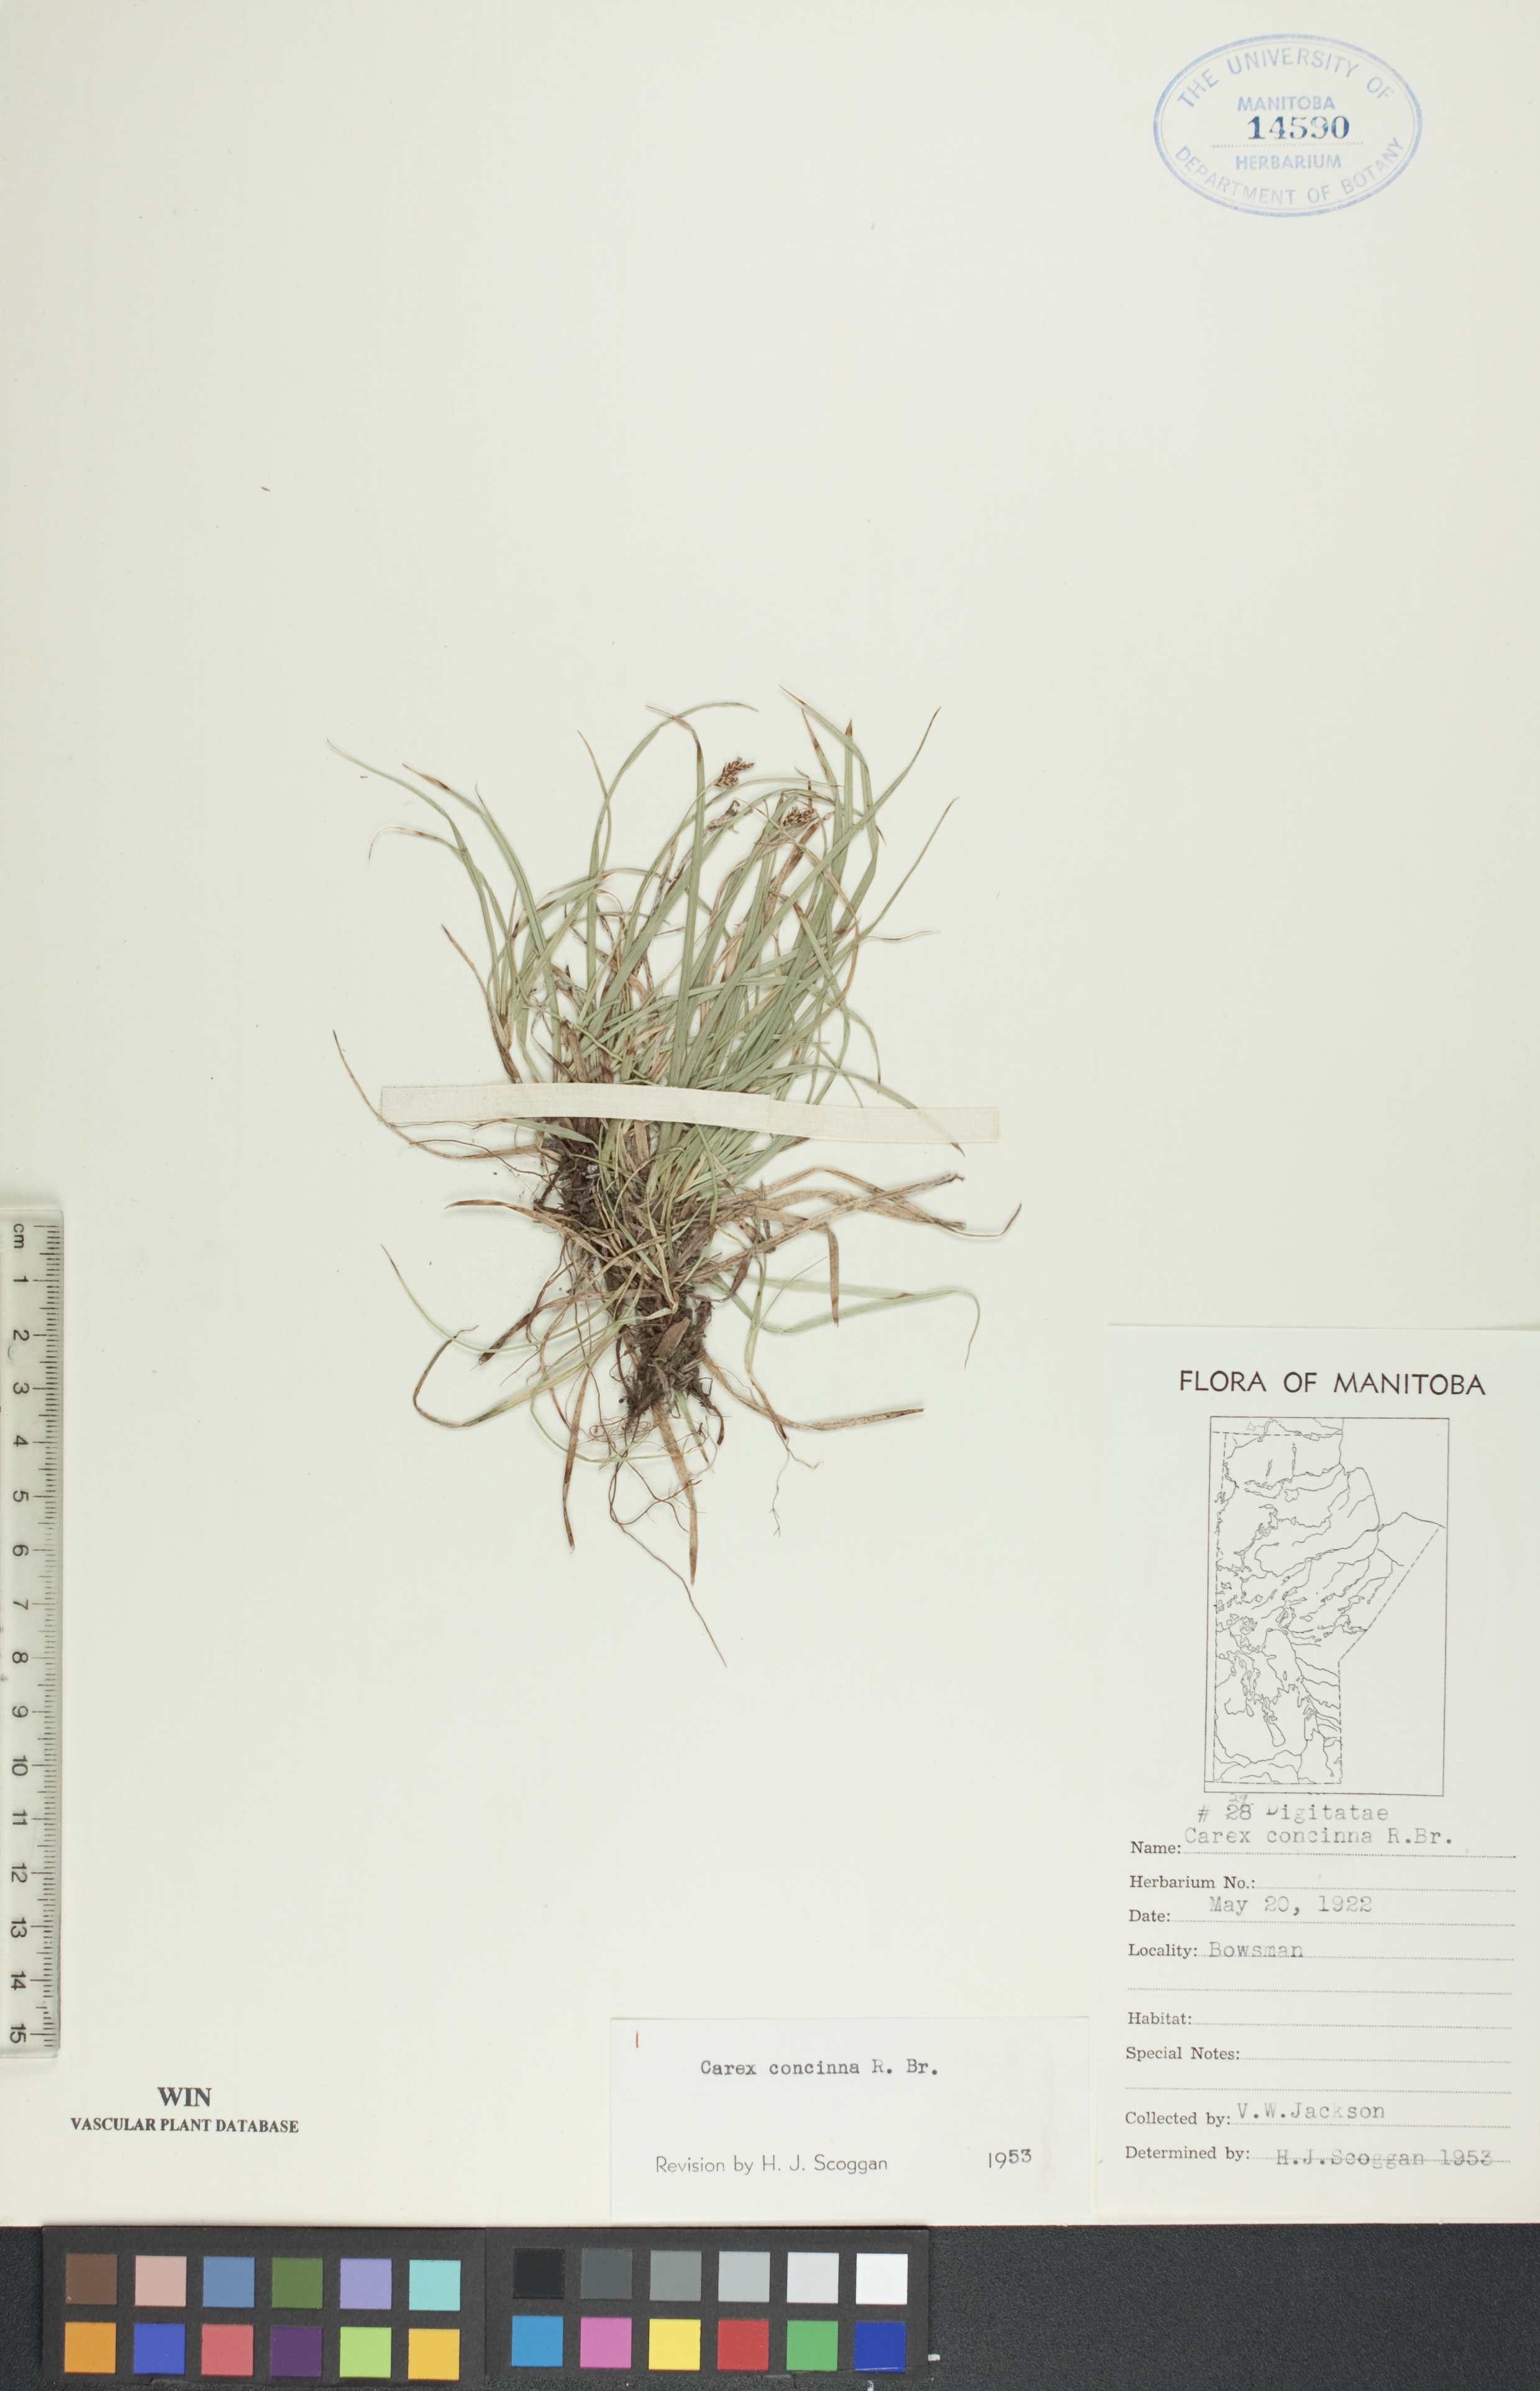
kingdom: Plantae
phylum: Tracheophyta
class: Liliopsida
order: Poales
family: Cyperaceae
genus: Carex
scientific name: Carex concinna
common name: Beautiful sedge
